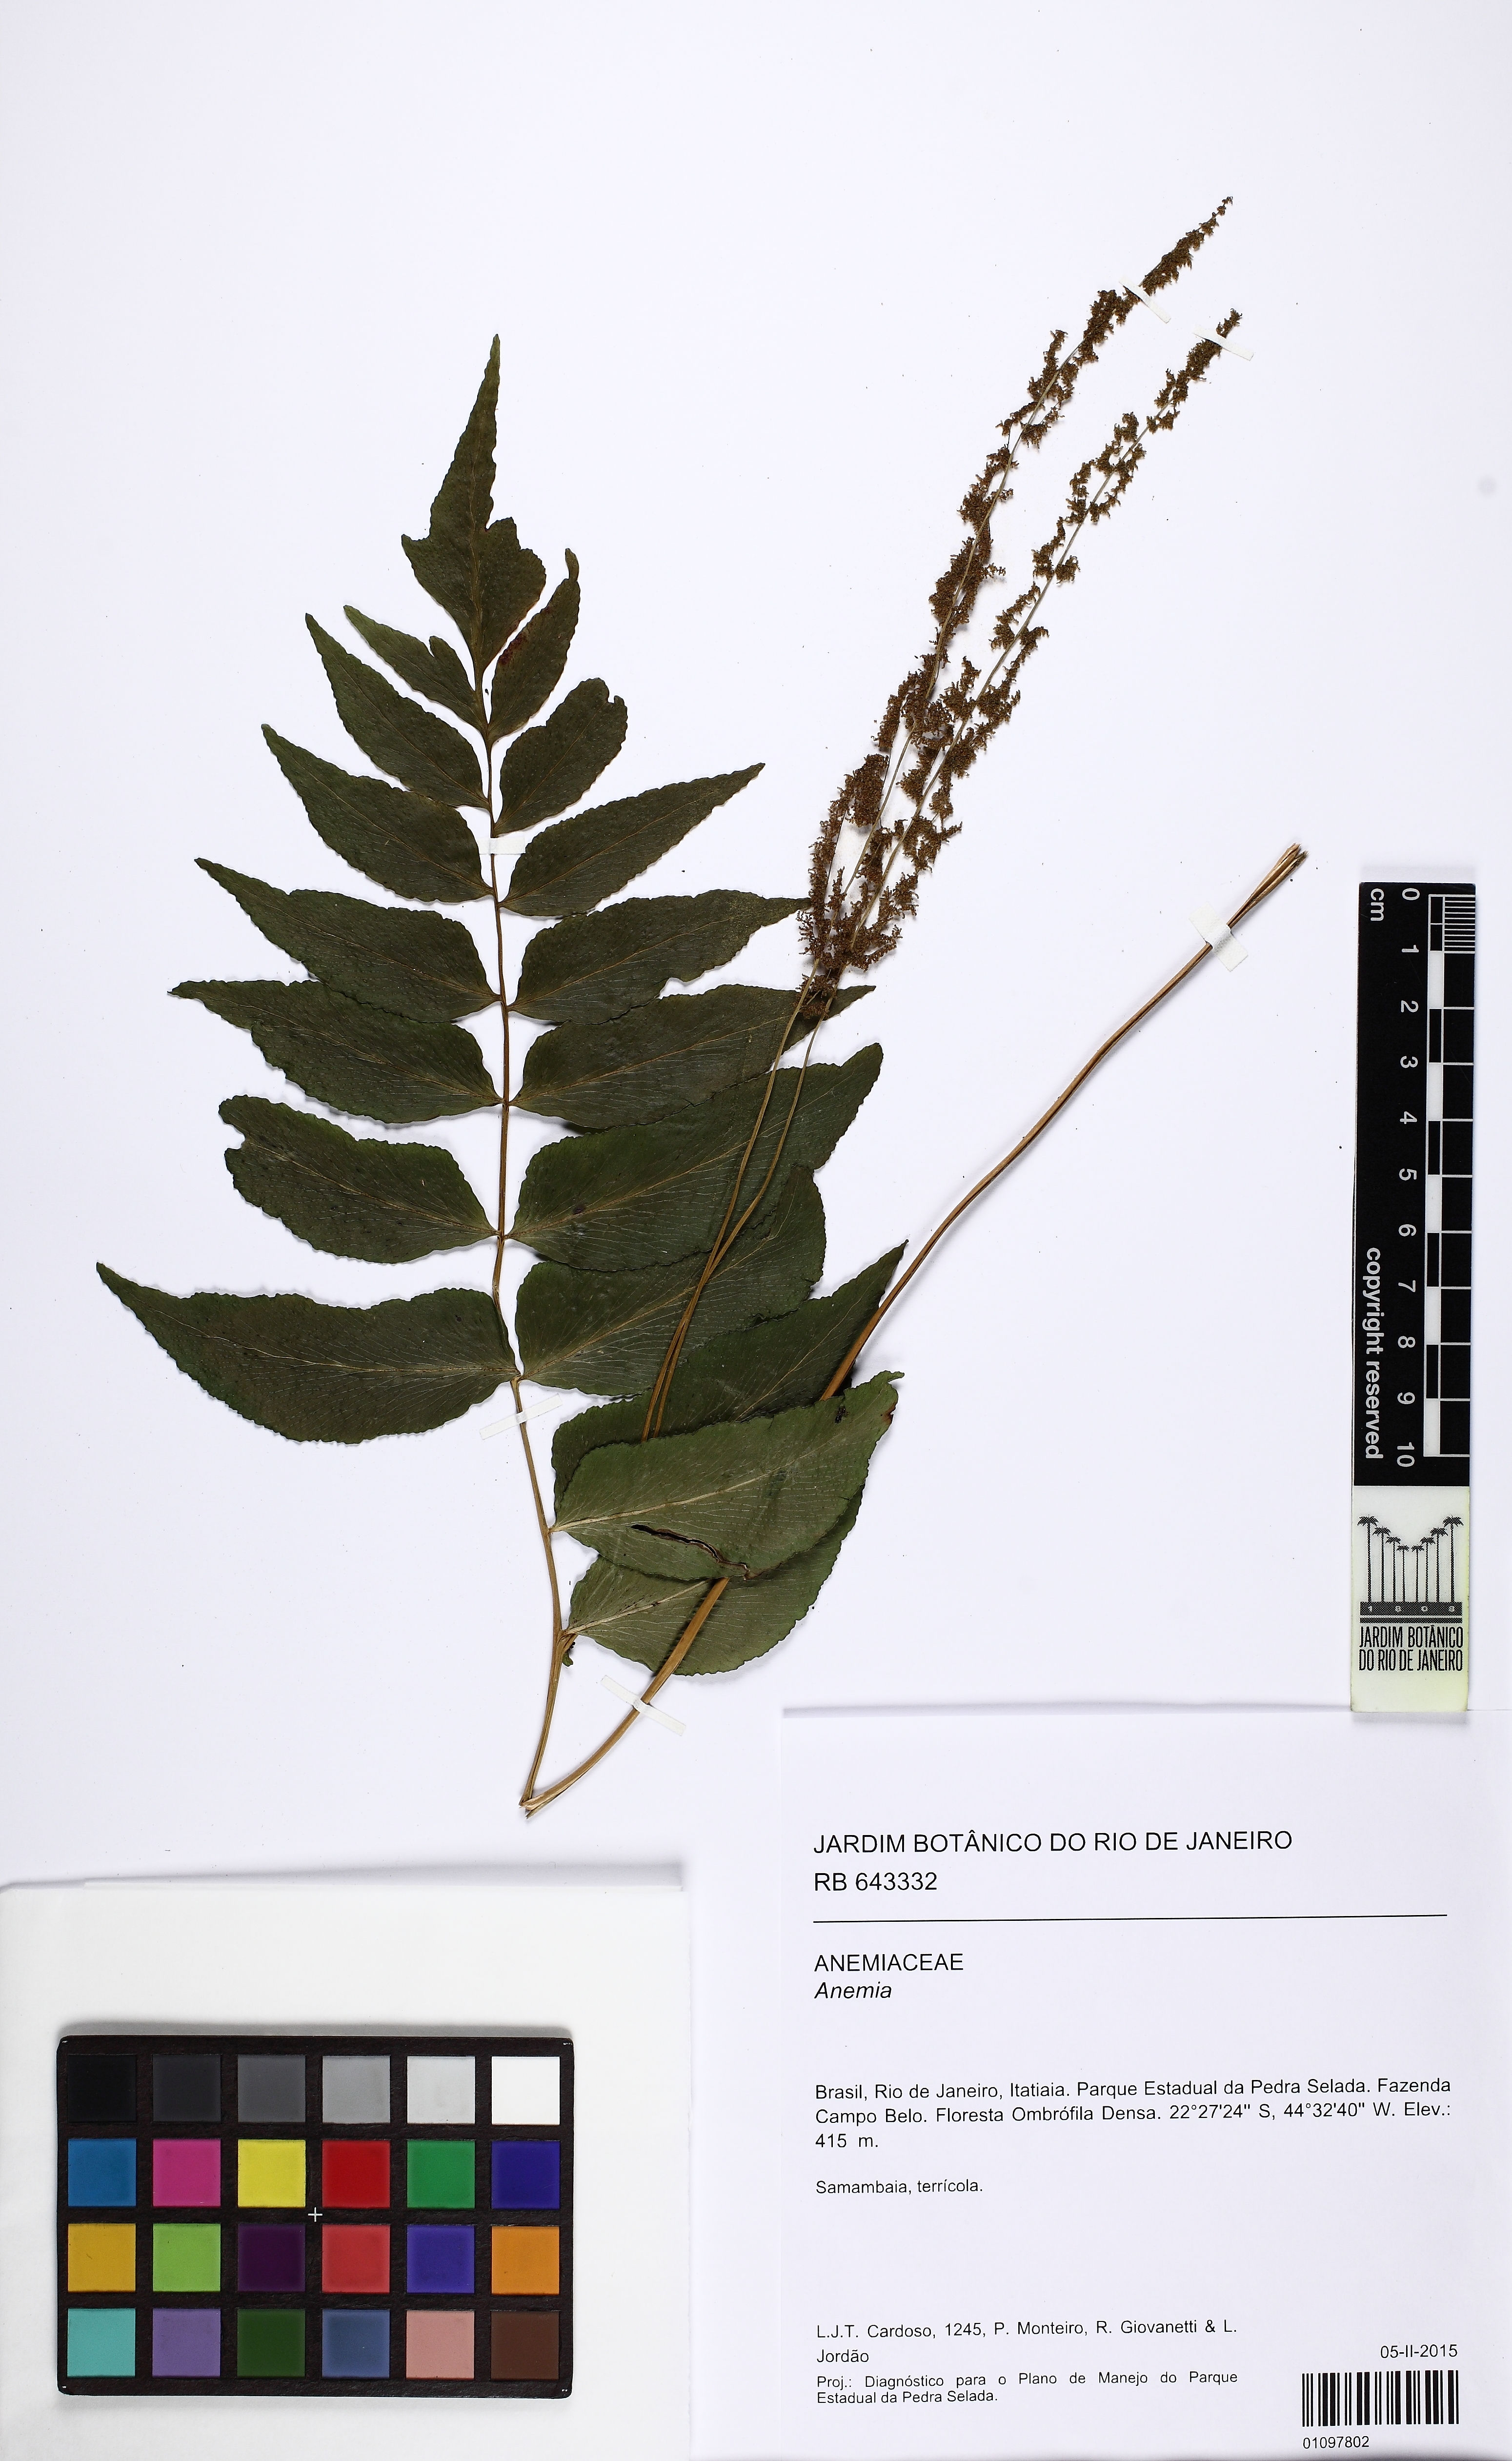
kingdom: Plantae
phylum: Tracheophyta
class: Polypodiopsida
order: Schizaeales
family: Anemiaceae
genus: Anemia
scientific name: Anemia phyllitidis
